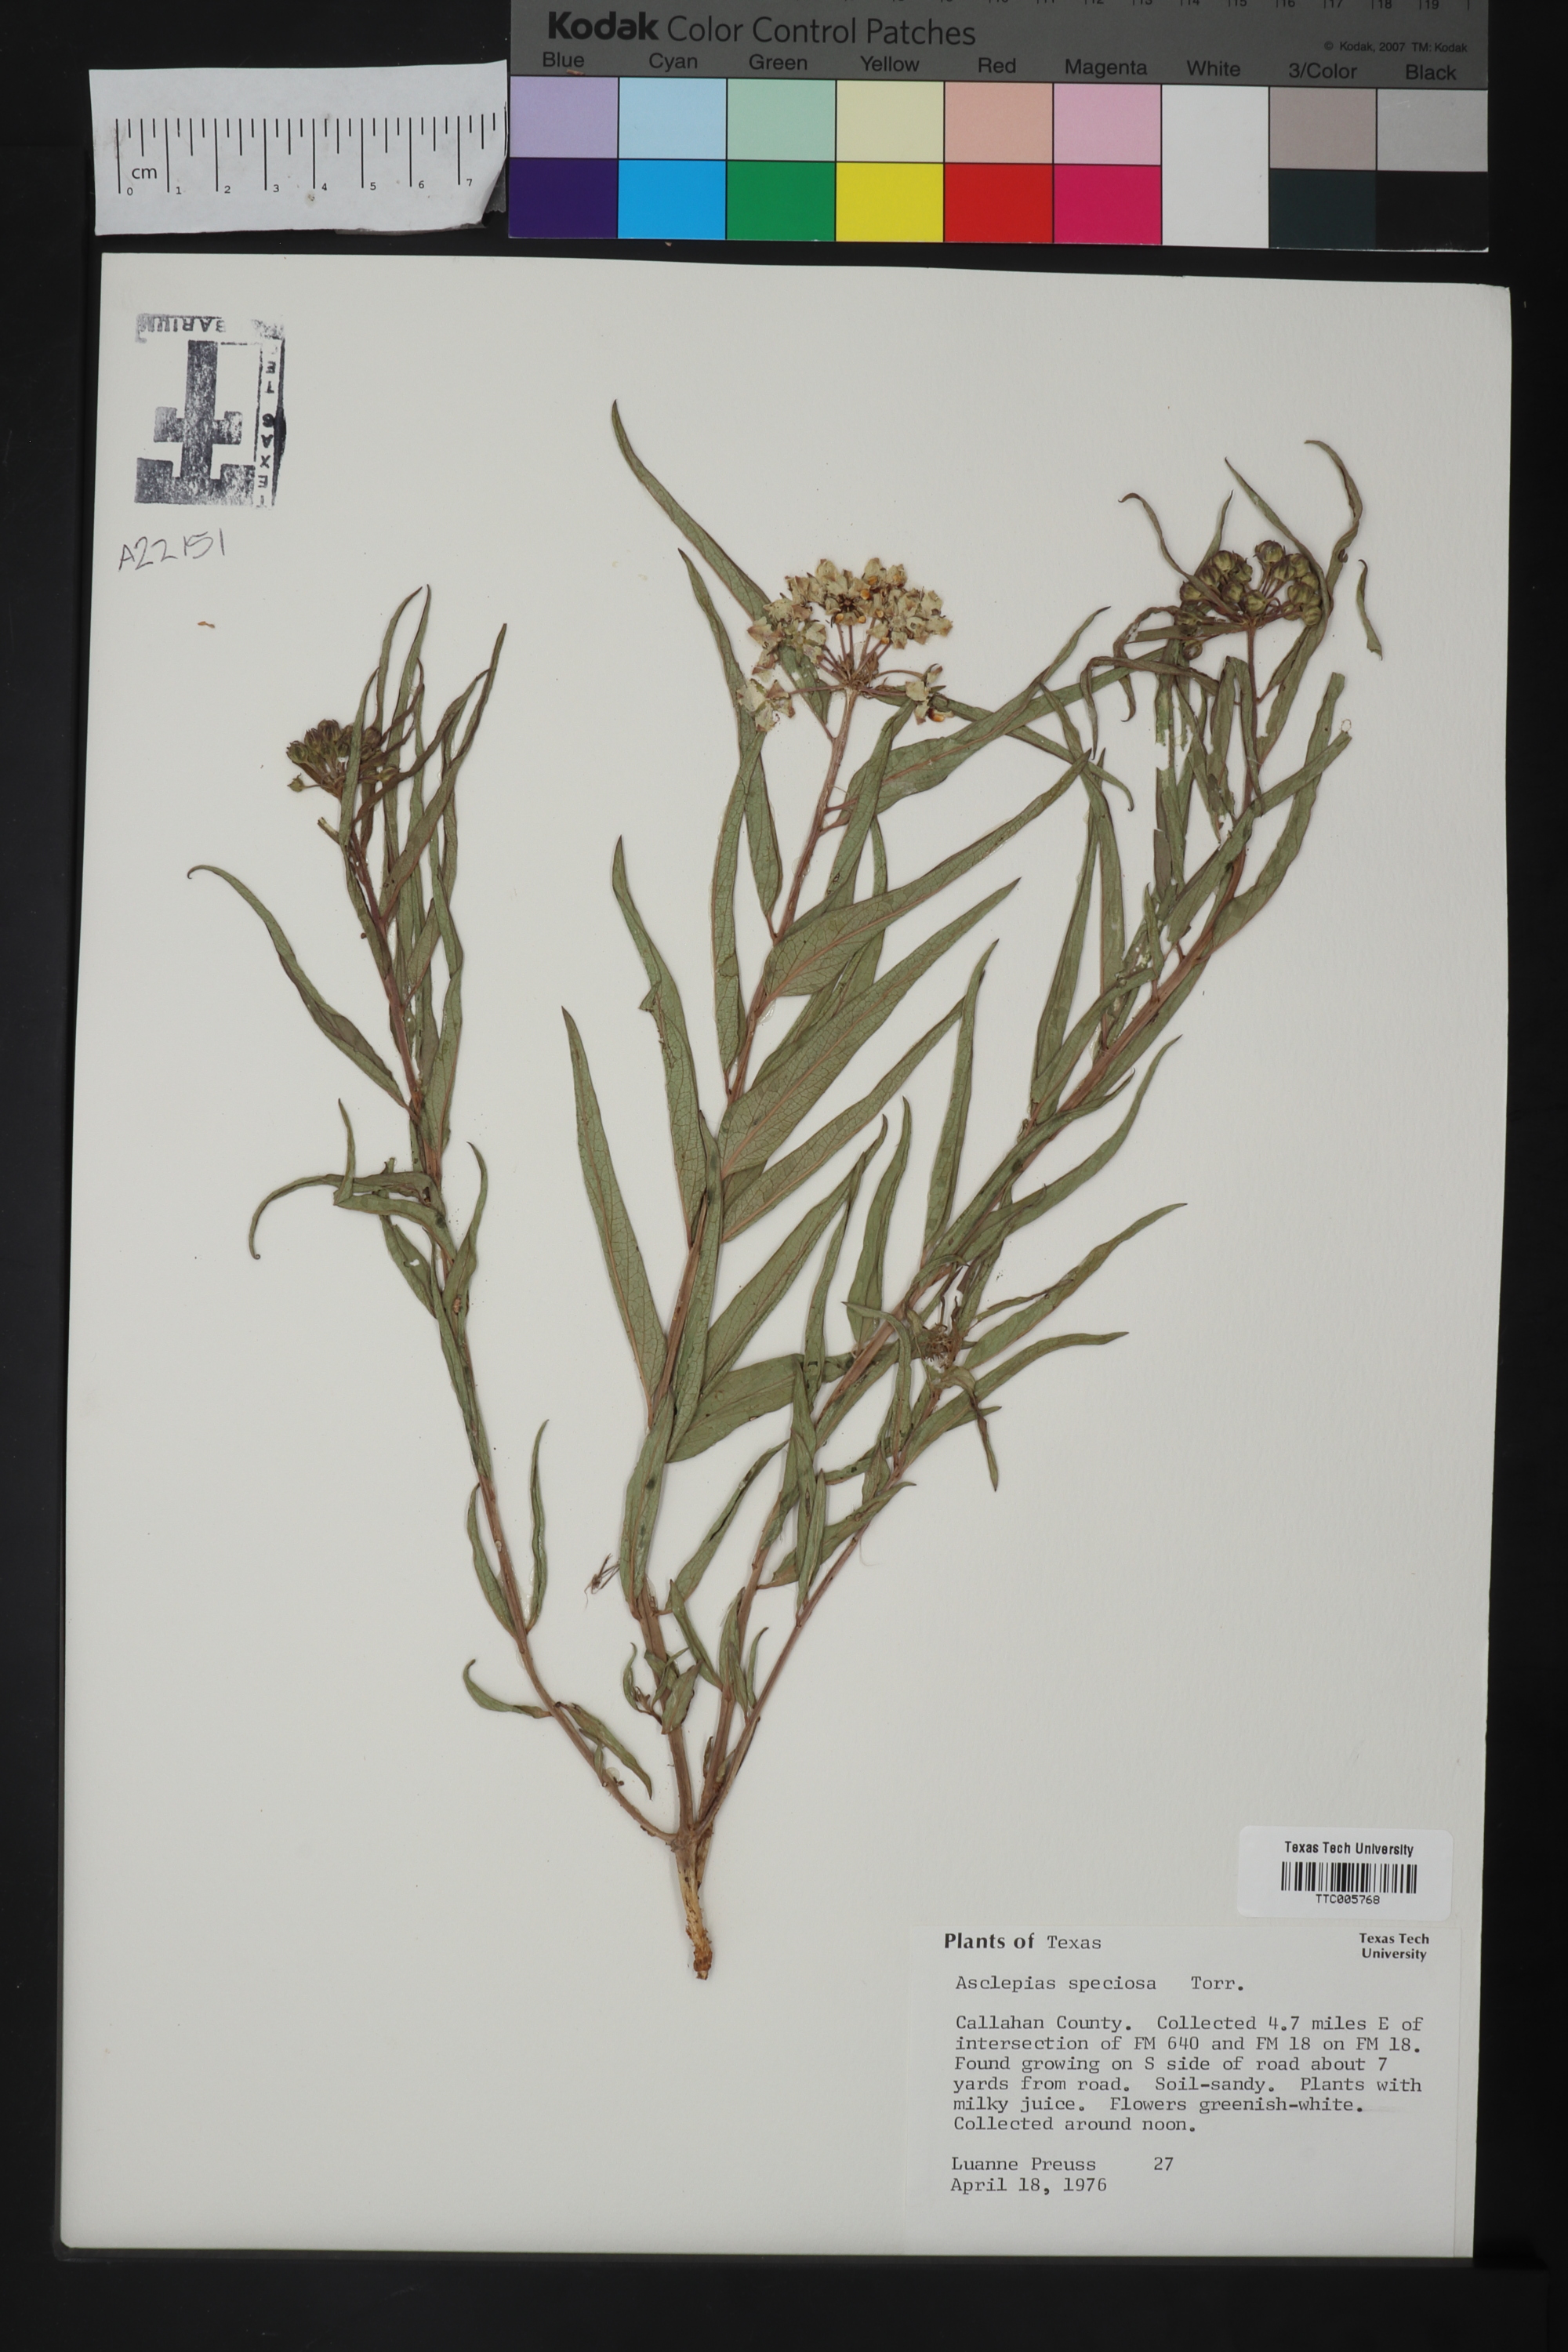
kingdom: Plantae
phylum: Tracheophyta
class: Magnoliopsida
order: Gentianales
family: Apocynaceae
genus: Asclepias
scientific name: Asclepias asperula
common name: Antelope horns
